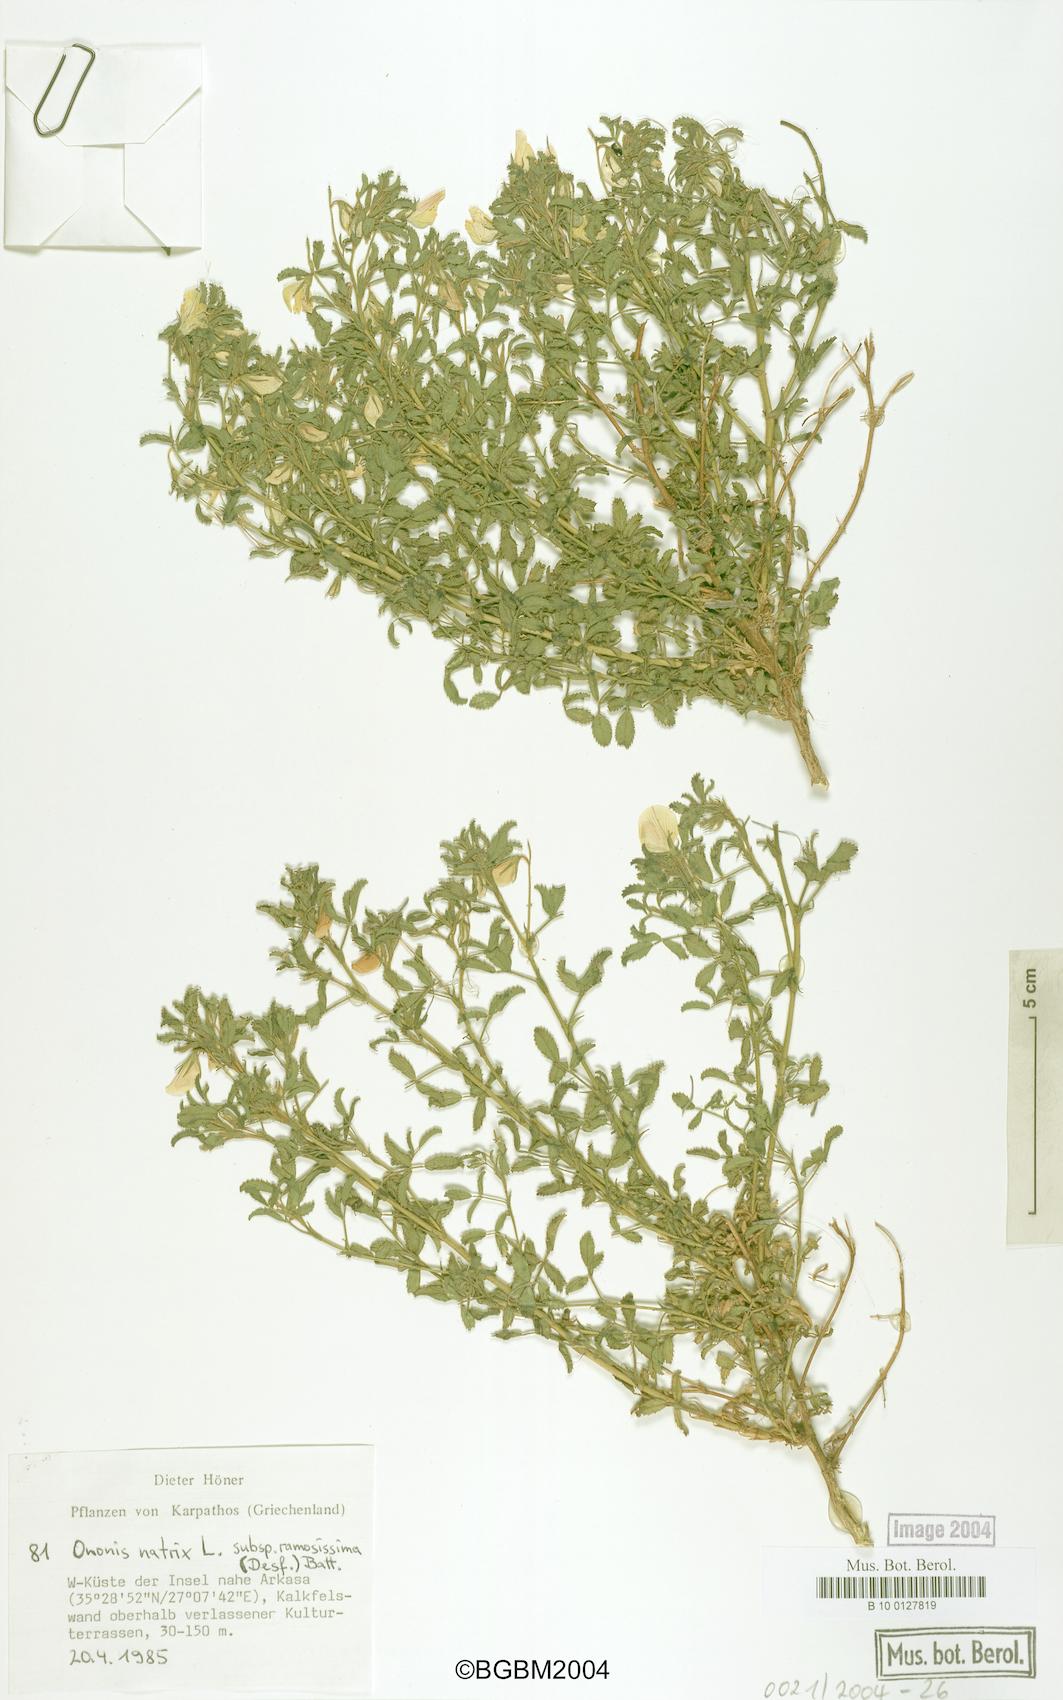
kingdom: Plantae
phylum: Tracheophyta
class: Magnoliopsida
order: Fabales
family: Fabaceae
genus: Ononis
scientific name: Ononis natrix
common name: Yellow restharrow
